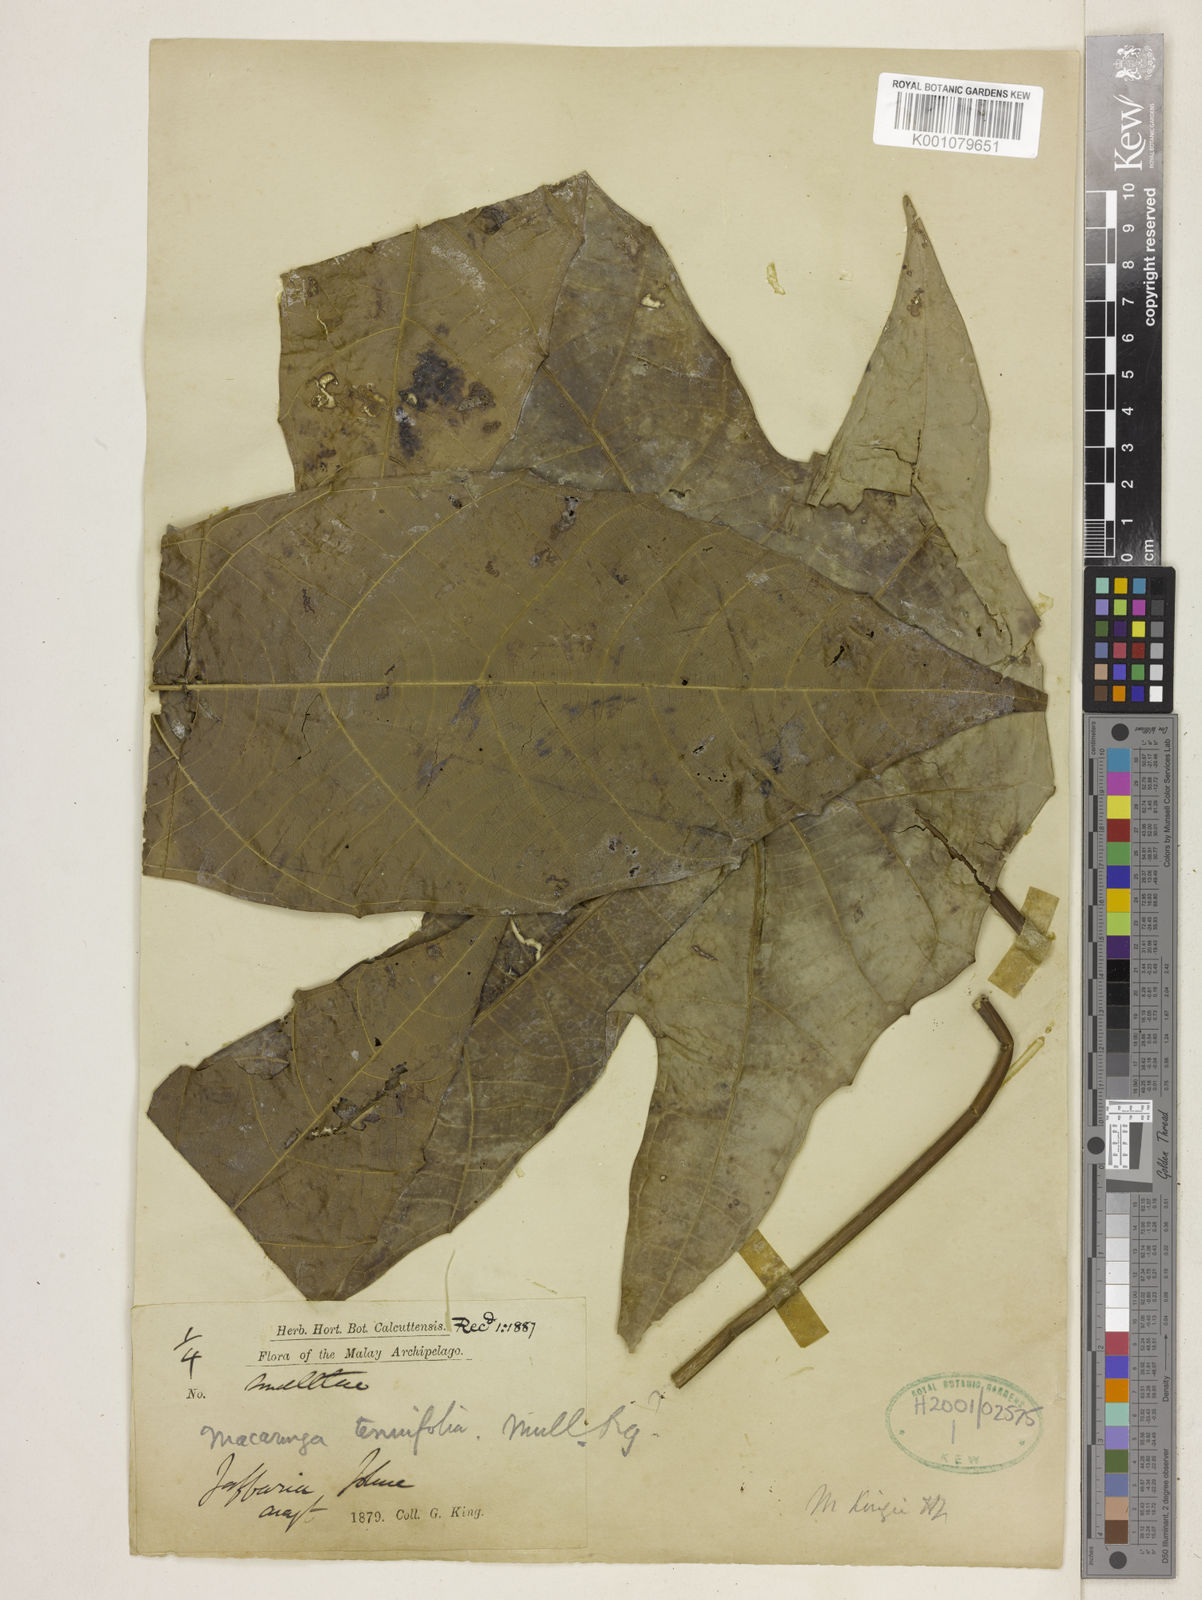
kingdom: Plantae
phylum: Tracheophyta
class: Magnoliopsida
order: Malpighiales
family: Euphorbiaceae
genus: Macaranga
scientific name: Macaranga kingii
